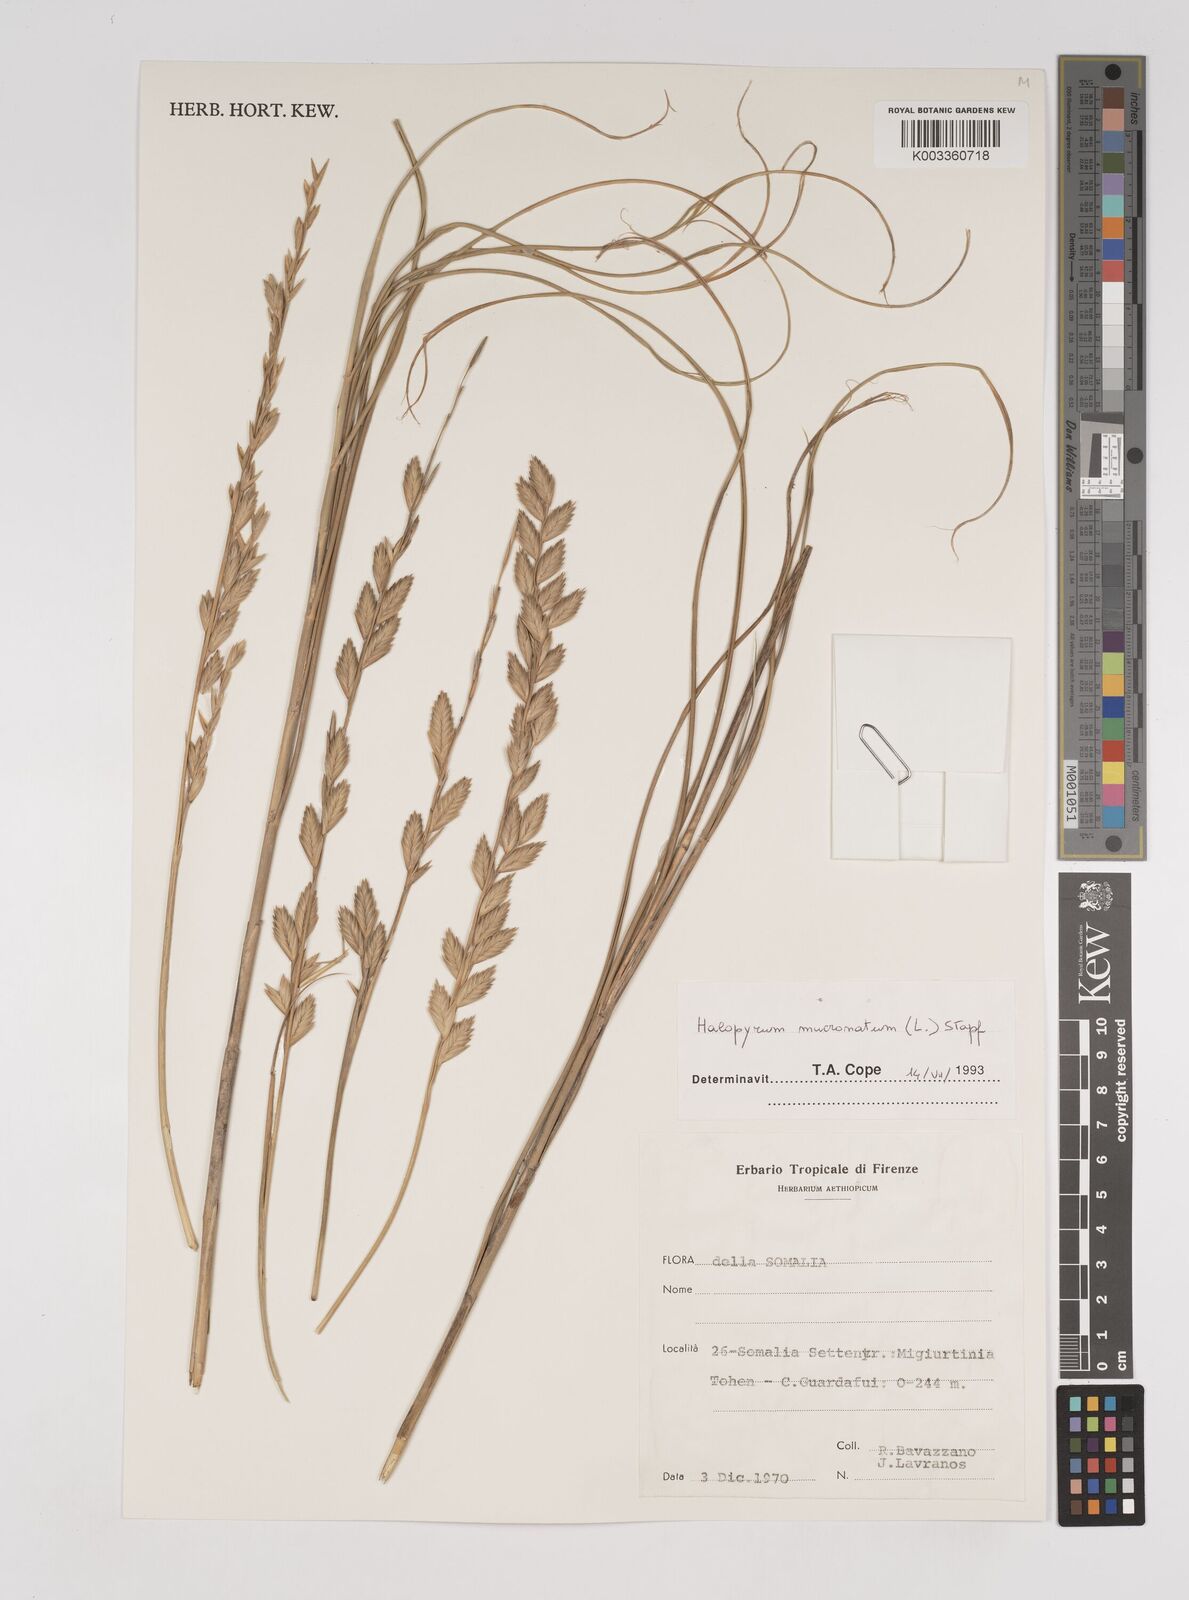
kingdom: Plantae
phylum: Tracheophyta
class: Liliopsida
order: Poales
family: Poaceae
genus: Halopyrum
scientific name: Halopyrum mucronatum
